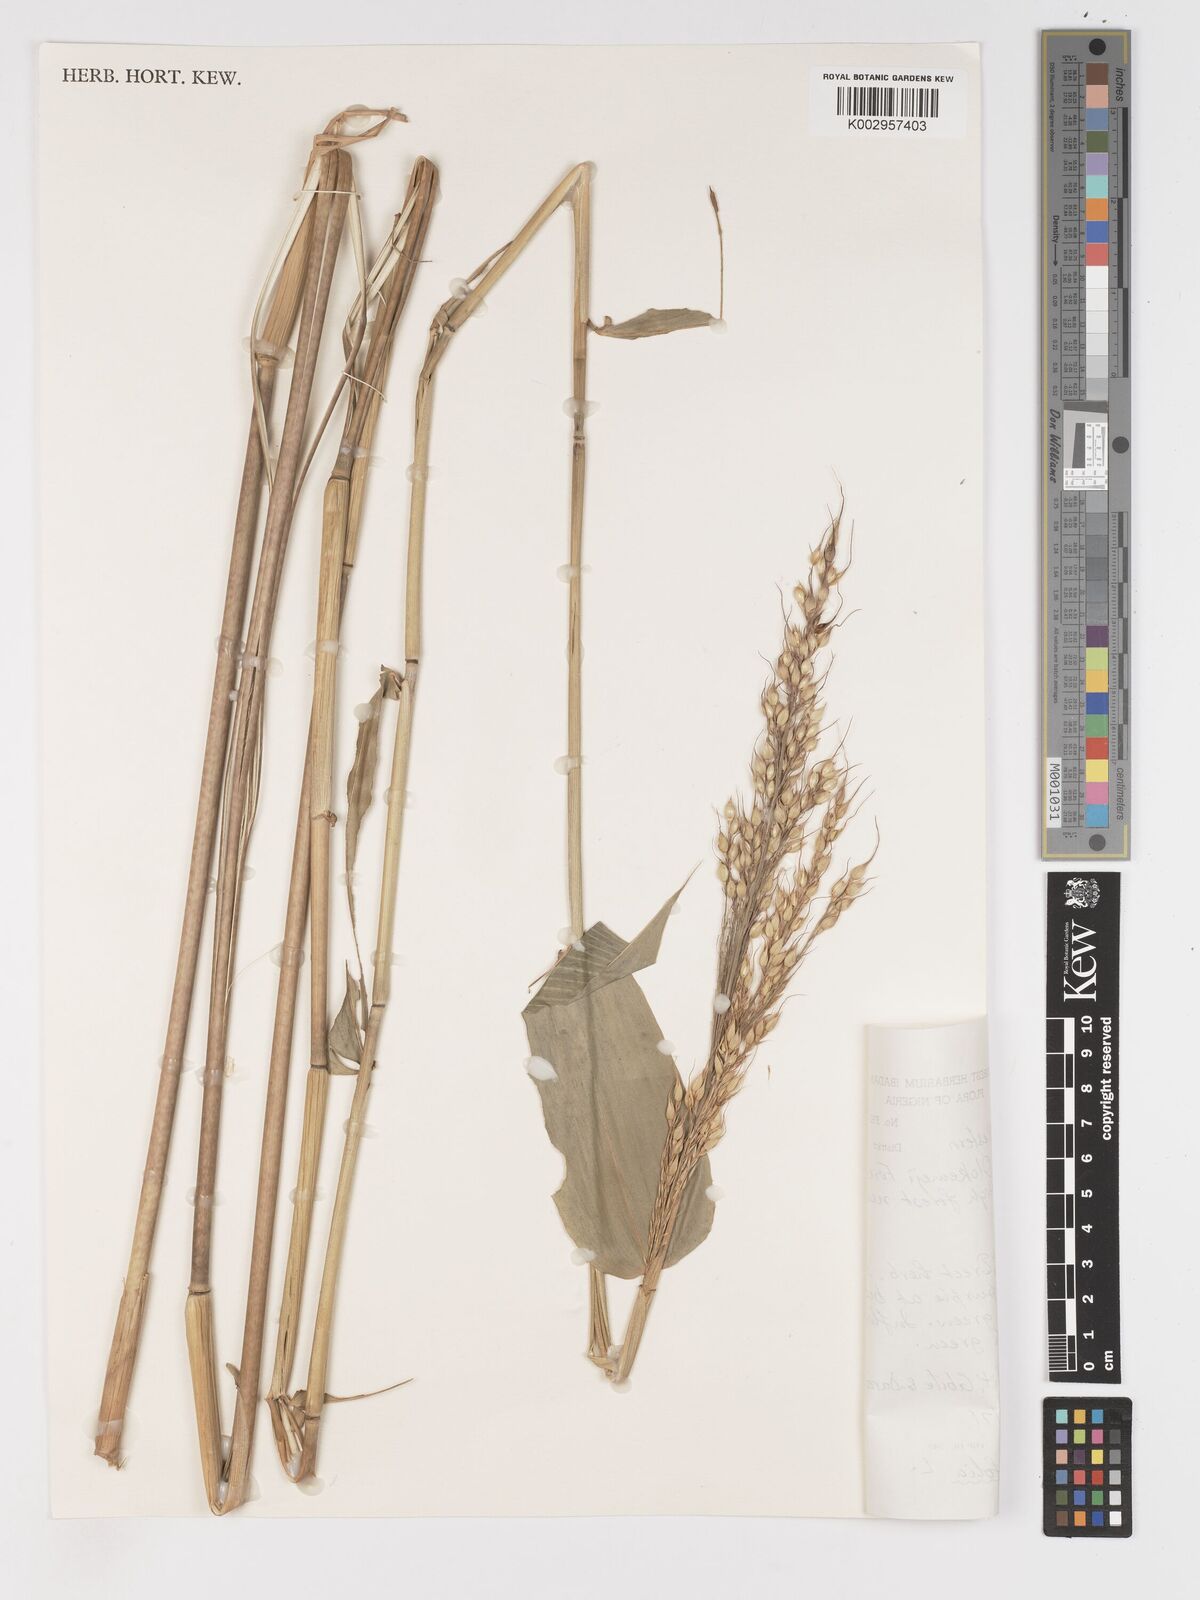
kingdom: Plantae
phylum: Tracheophyta
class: Liliopsida
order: Poales
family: Poaceae
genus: Olyra
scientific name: Olyra latifolia
